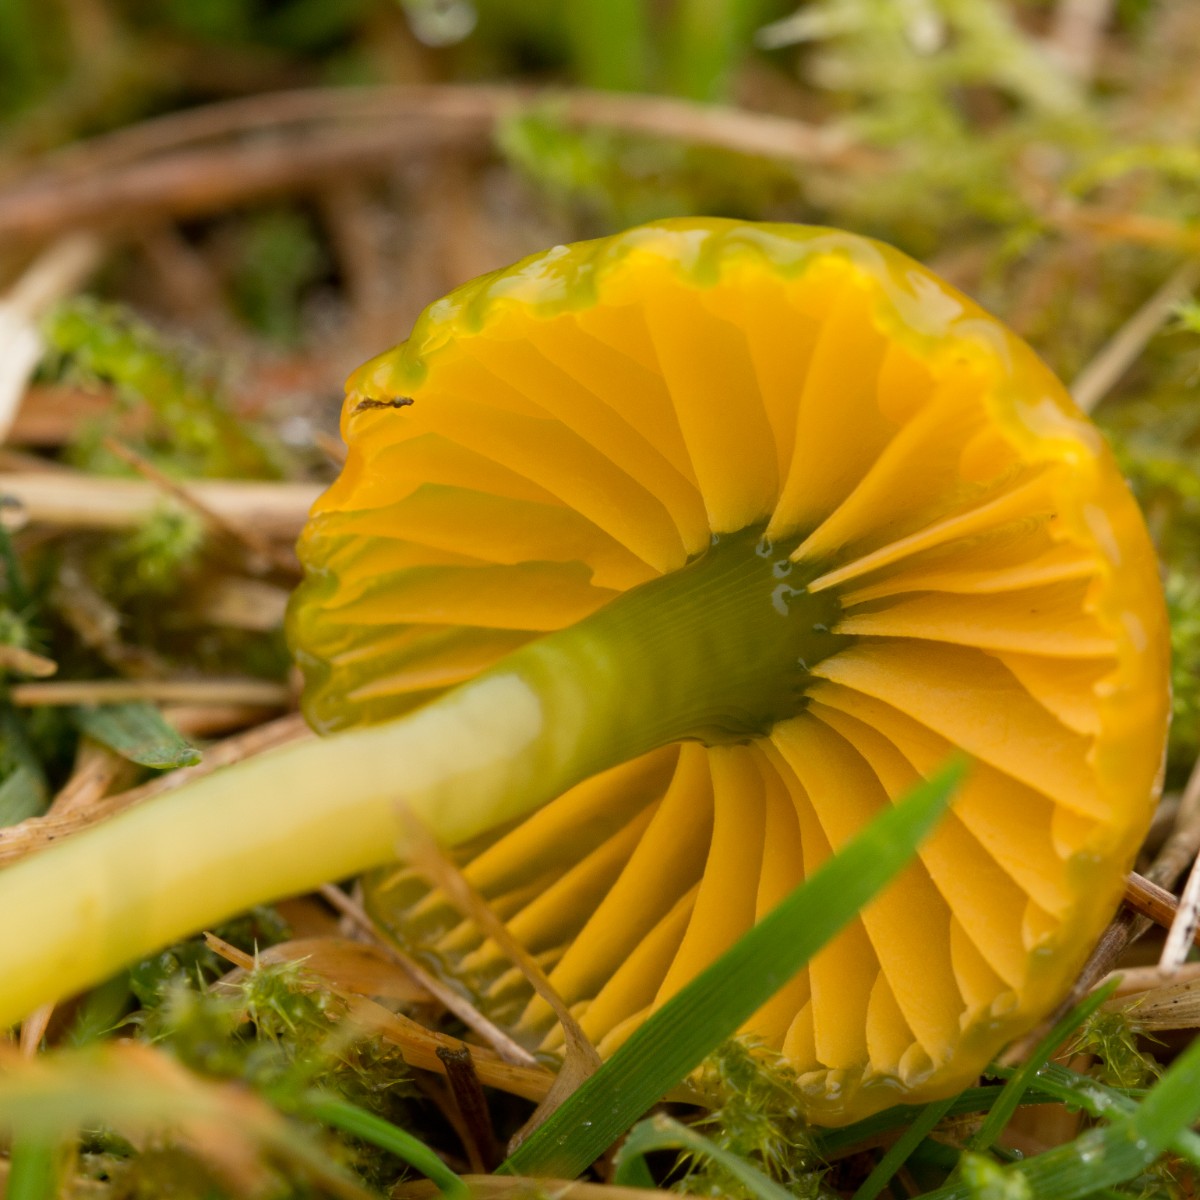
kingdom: Fungi
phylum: Basidiomycota
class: Agaricomycetes
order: Agaricales
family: Hygrophoraceae
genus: Gliophorus
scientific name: Gliophorus psittacinus
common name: papegøje-vokshat
